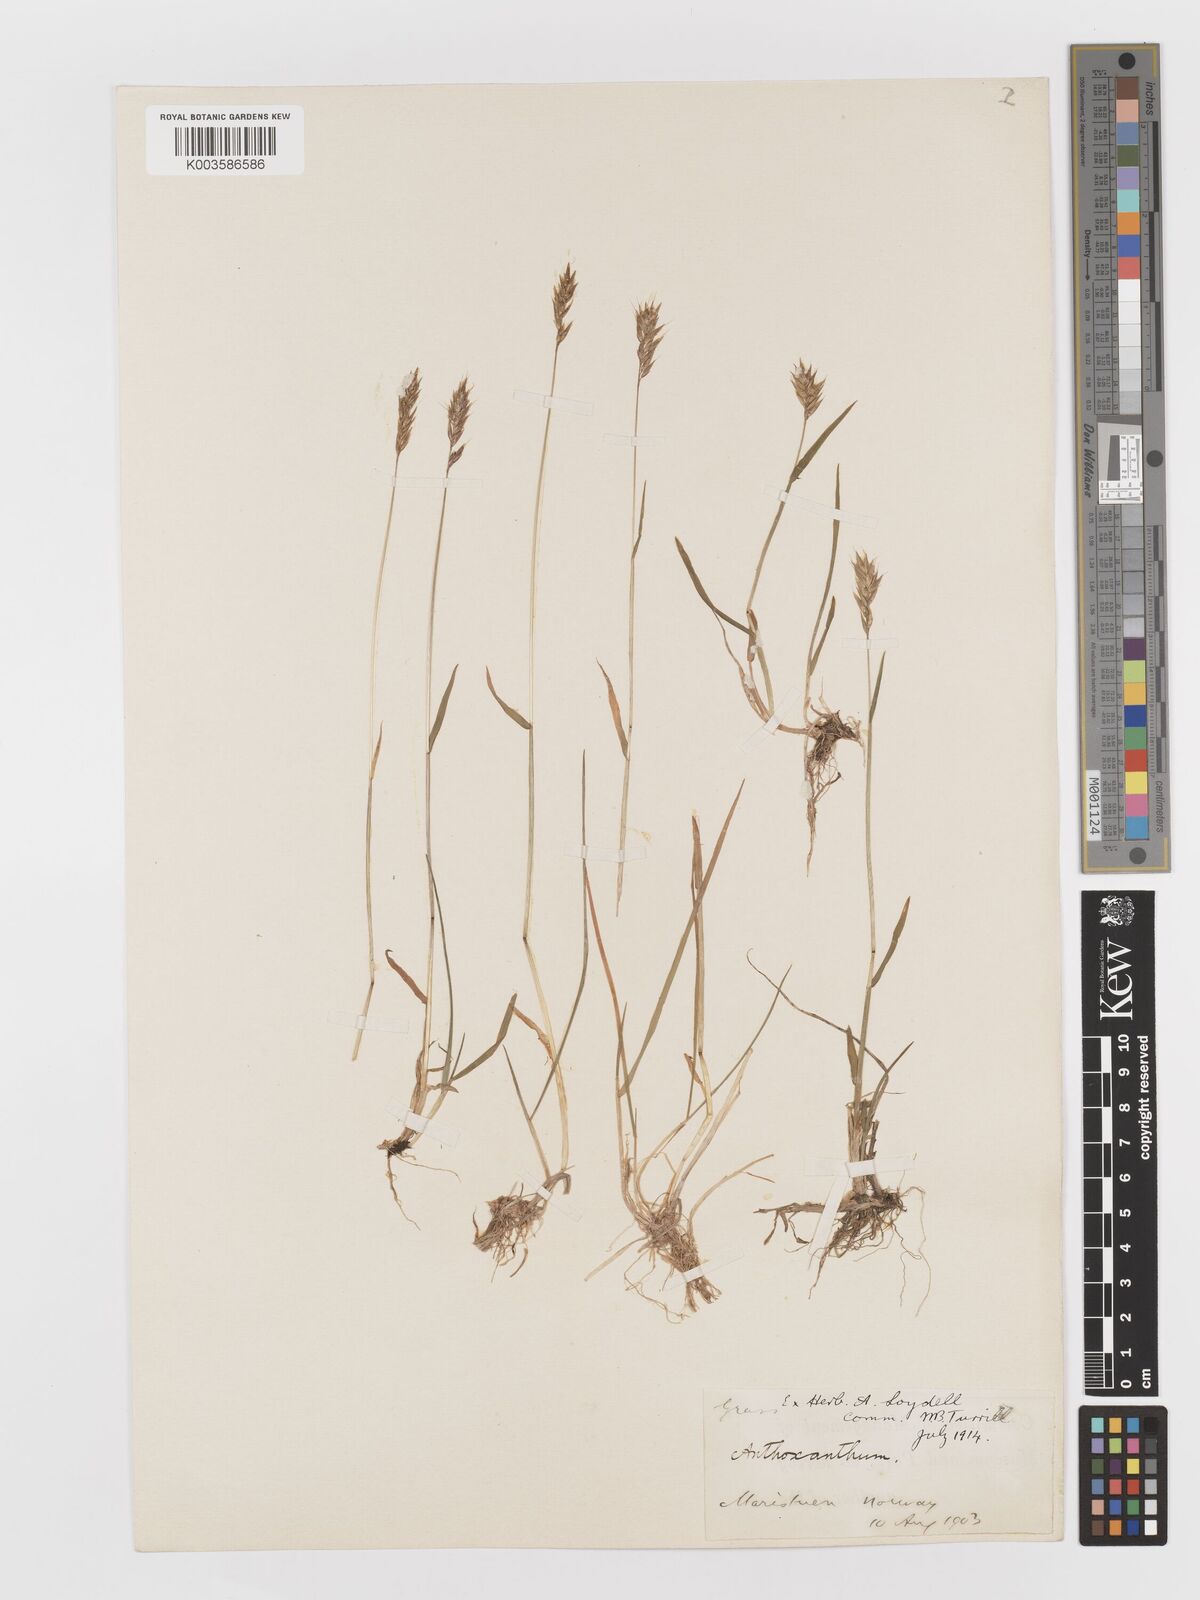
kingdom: Plantae
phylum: Tracheophyta
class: Liliopsida
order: Poales
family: Poaceae
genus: Anthoxanthum
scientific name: Anthoxanthum odoratum
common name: Sweet vernalgrass
